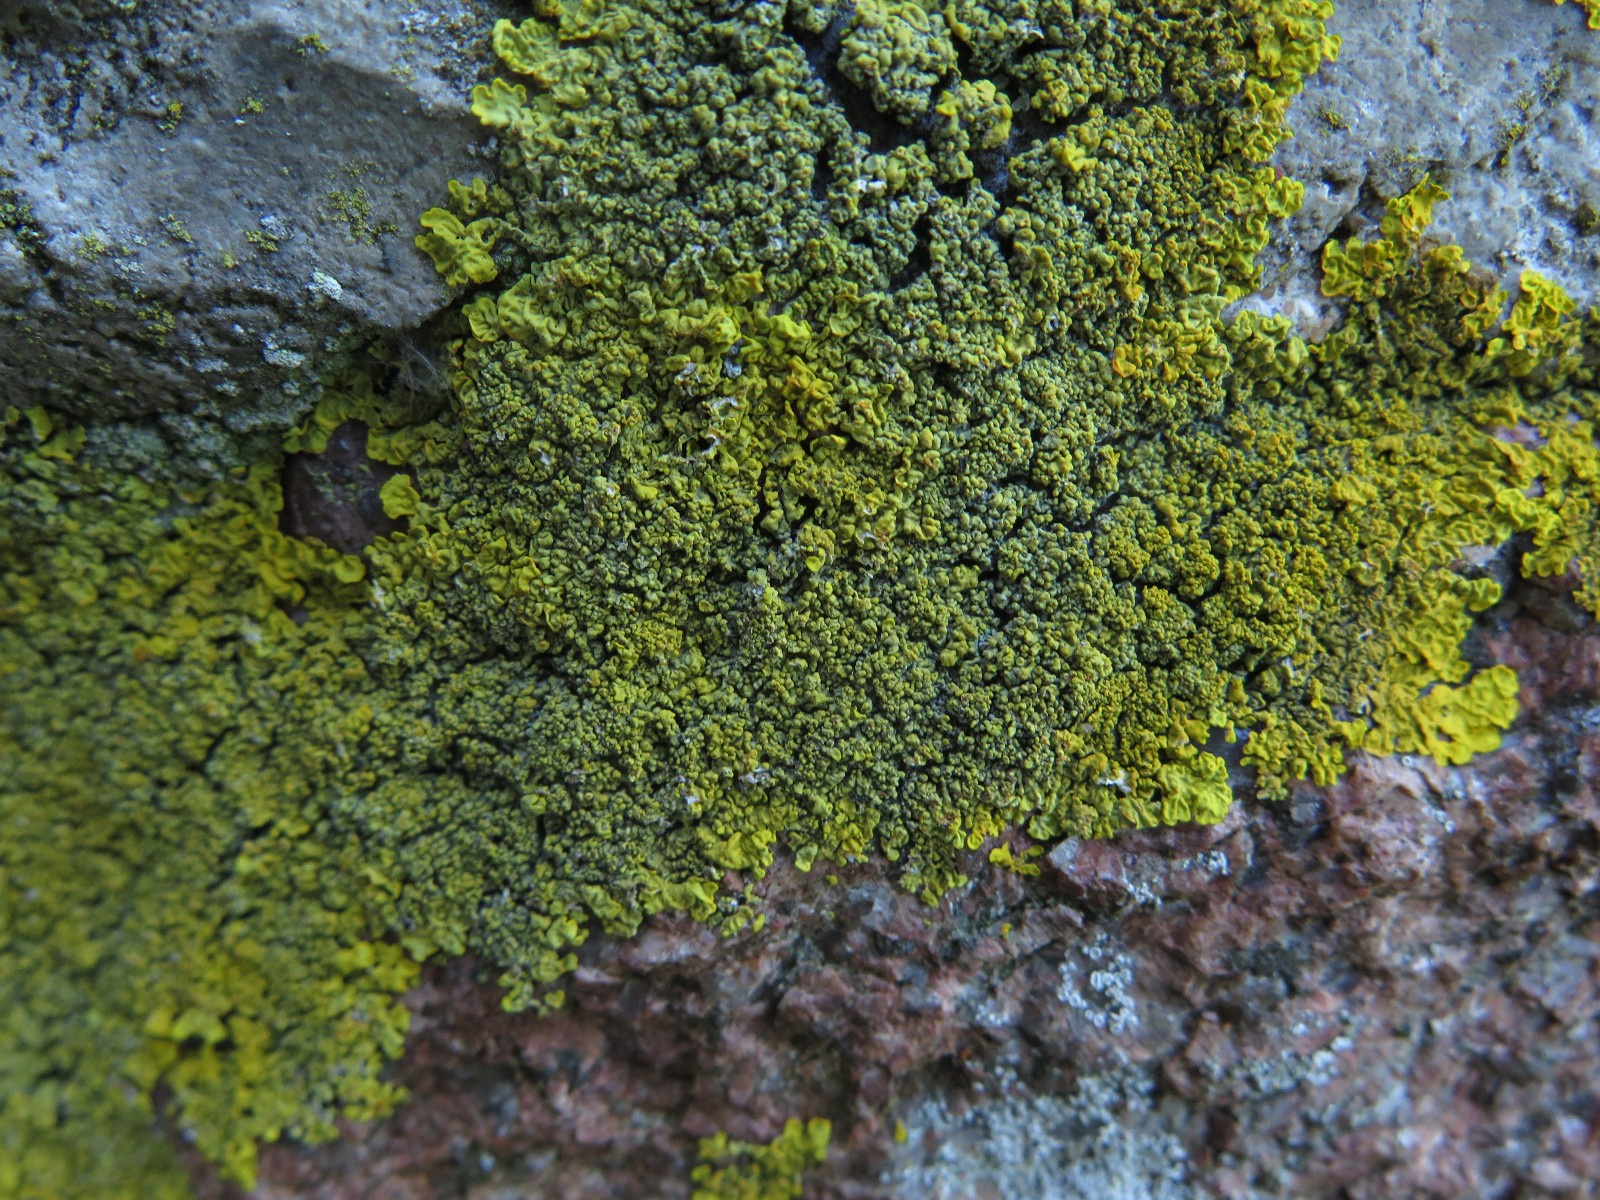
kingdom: Fungi
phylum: Ascomycota
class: Lecanoromycetes
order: Teloschistales
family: Teloschistaceae
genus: Xanthoria
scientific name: Xanthoria calcicola
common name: vortet væggelav
